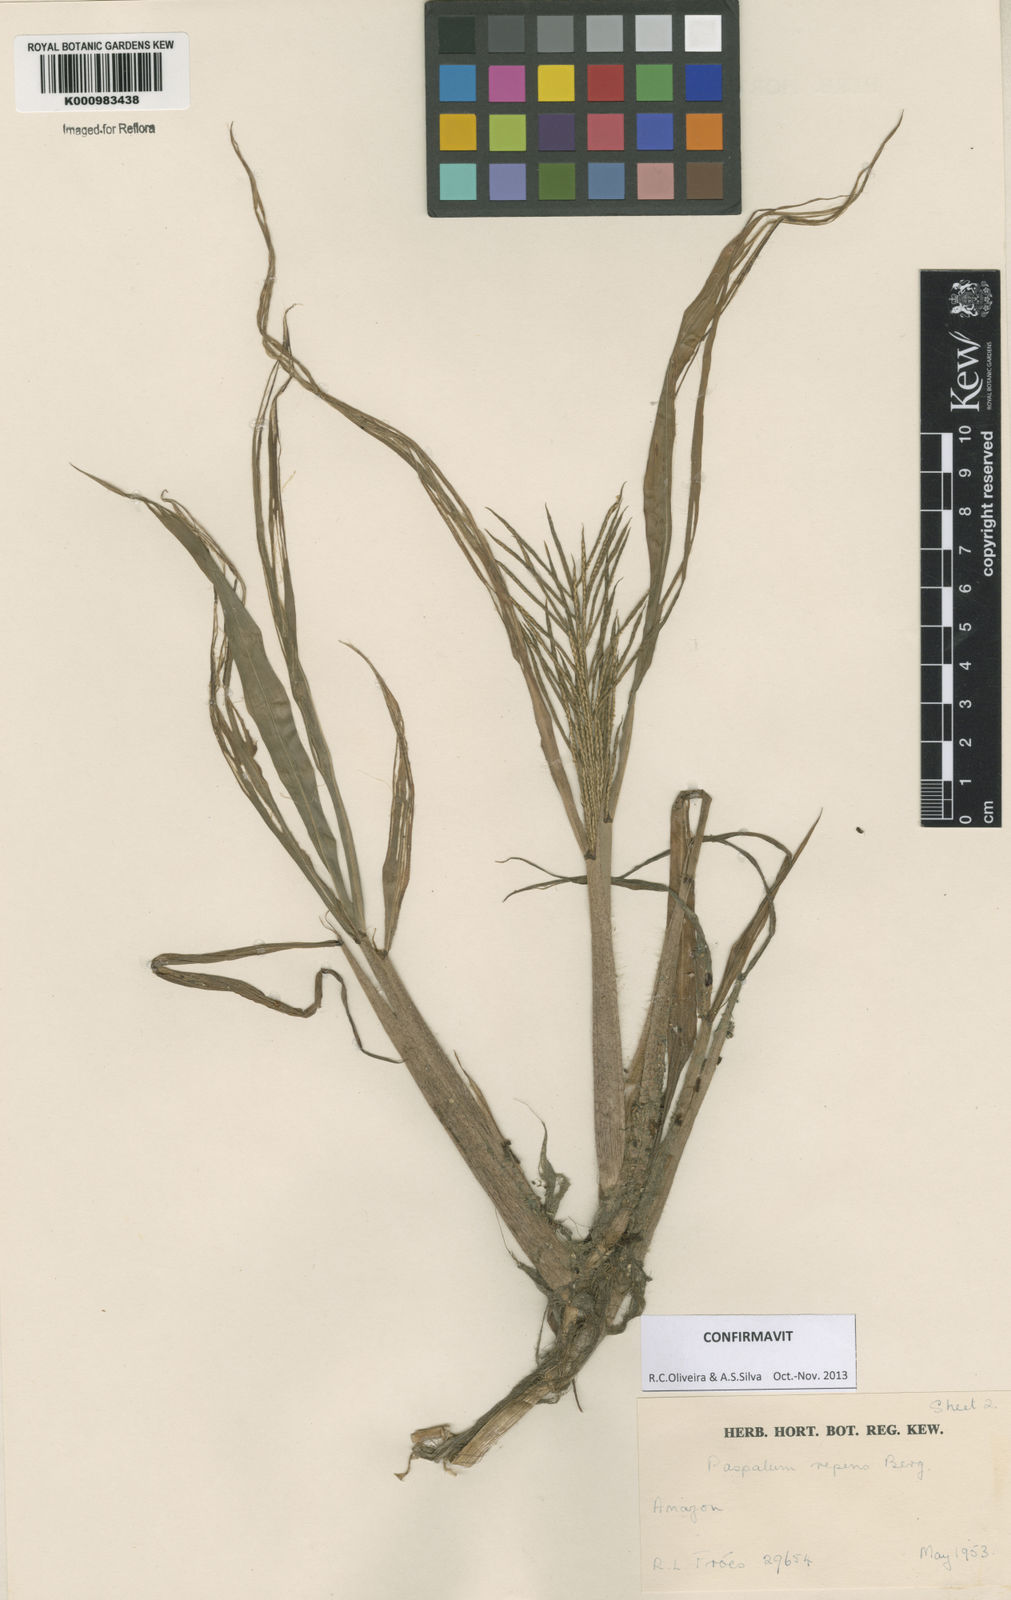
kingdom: Plantae
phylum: Tracheophyta
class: Liliopsida
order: Poales
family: Poaceae
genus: Paspalum
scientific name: Paspalum repens
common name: Water paspalum
